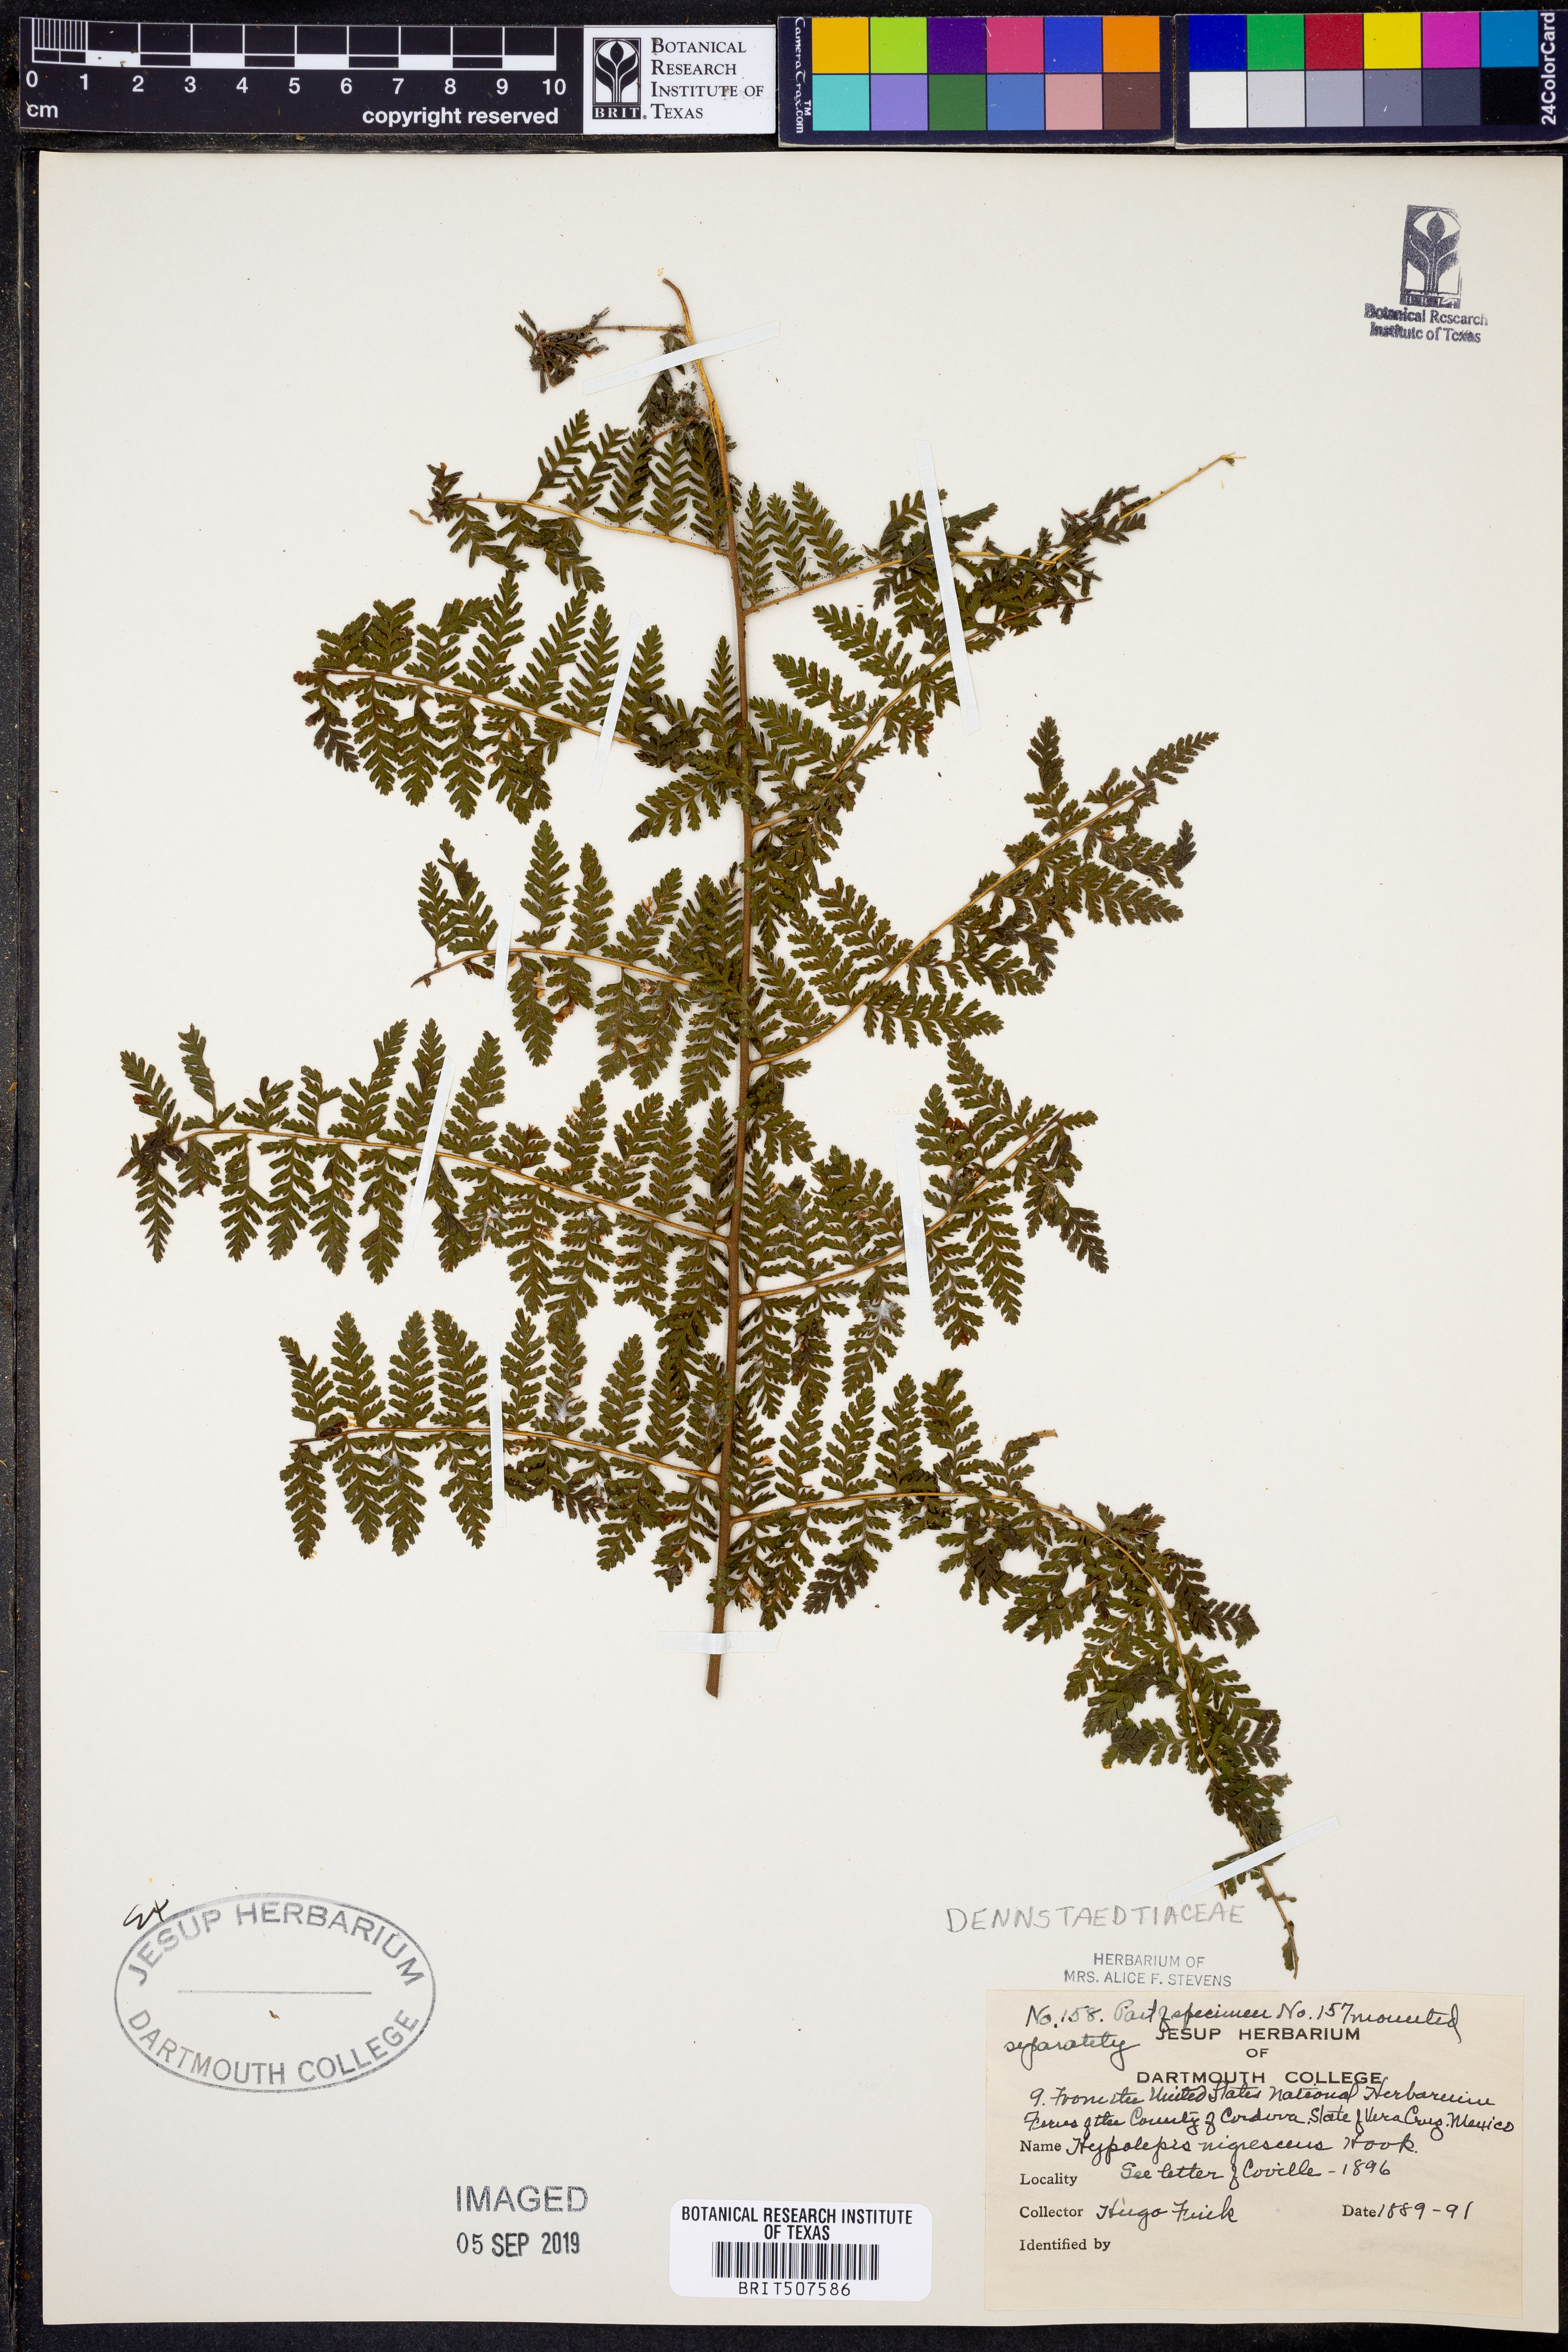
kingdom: Plantae
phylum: Tracheophyta
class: Polypodiopsida
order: Polypodiales
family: Dennstaedtiaceae
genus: Hiya
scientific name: Hiya nigrescens
